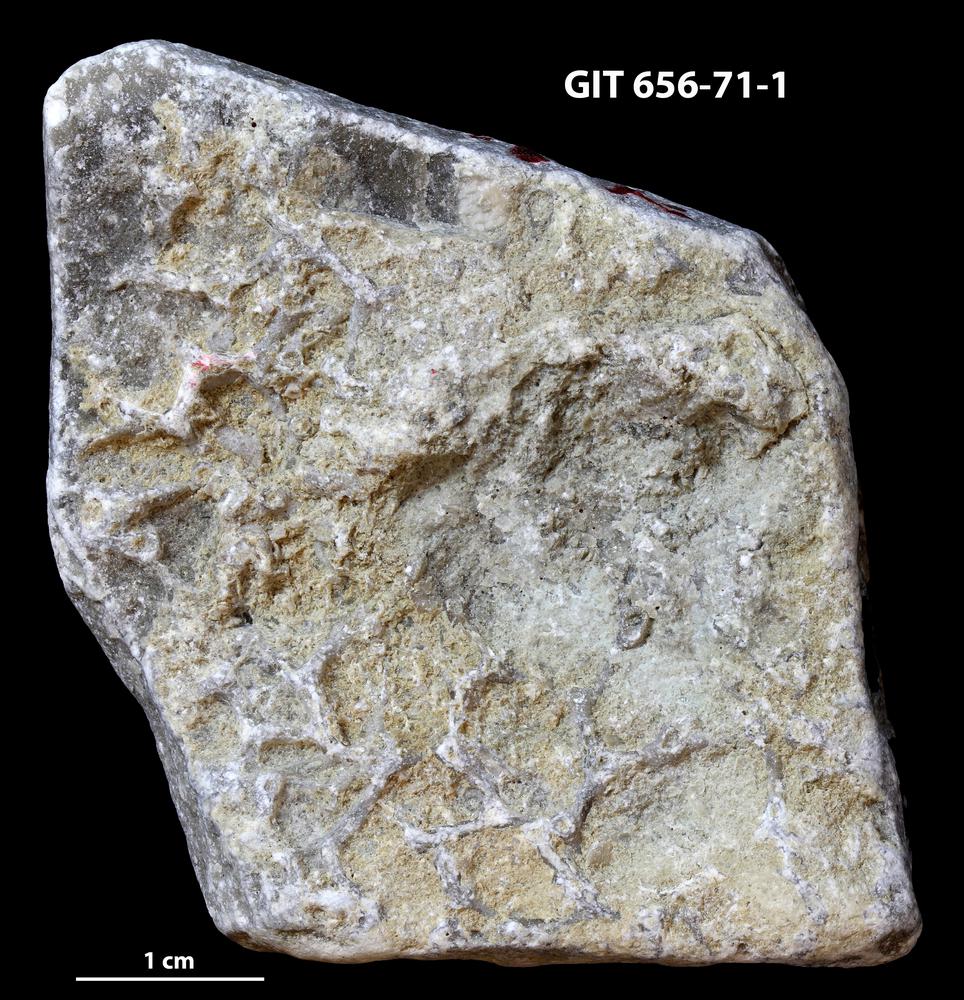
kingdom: Animalia
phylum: Porifera
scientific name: Porifera
